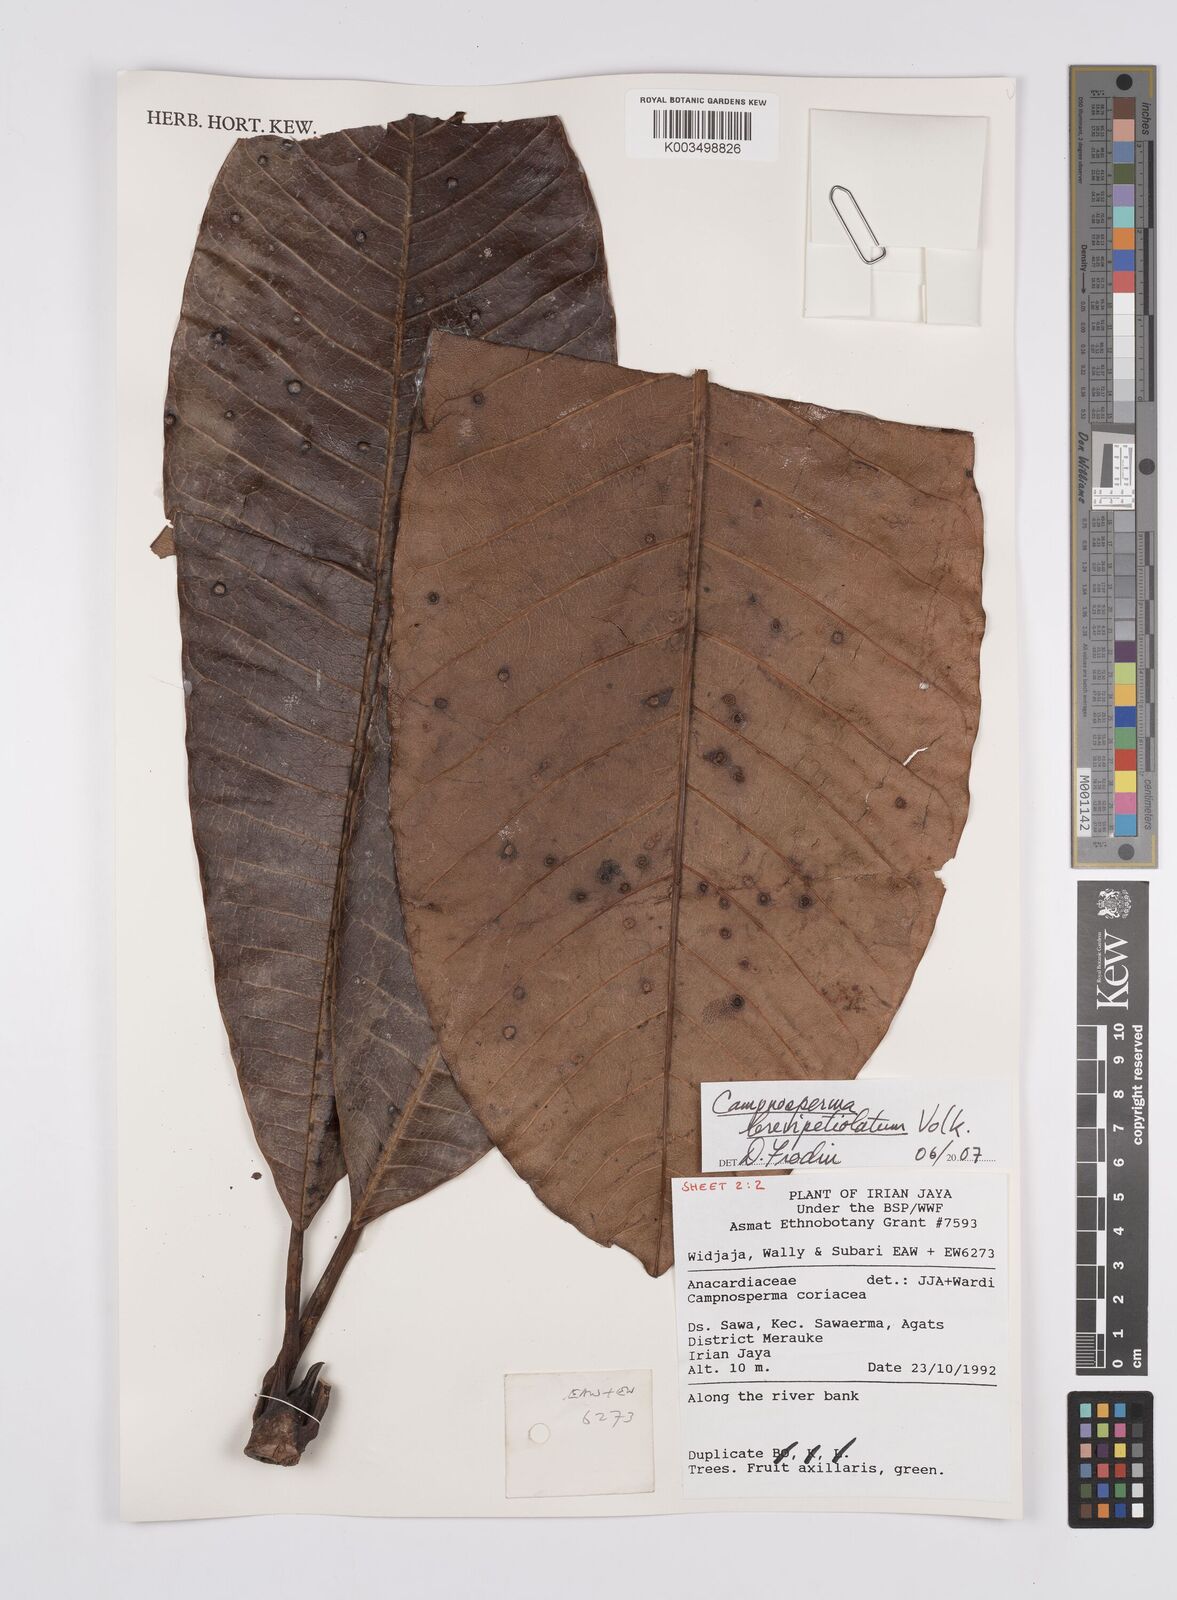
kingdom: Plantae
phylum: Tracheophyta
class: Magnoliopsida
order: Sapindales
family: Anacardiaceae
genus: Campnosperma
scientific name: Campnosperma brevipetiolatum
